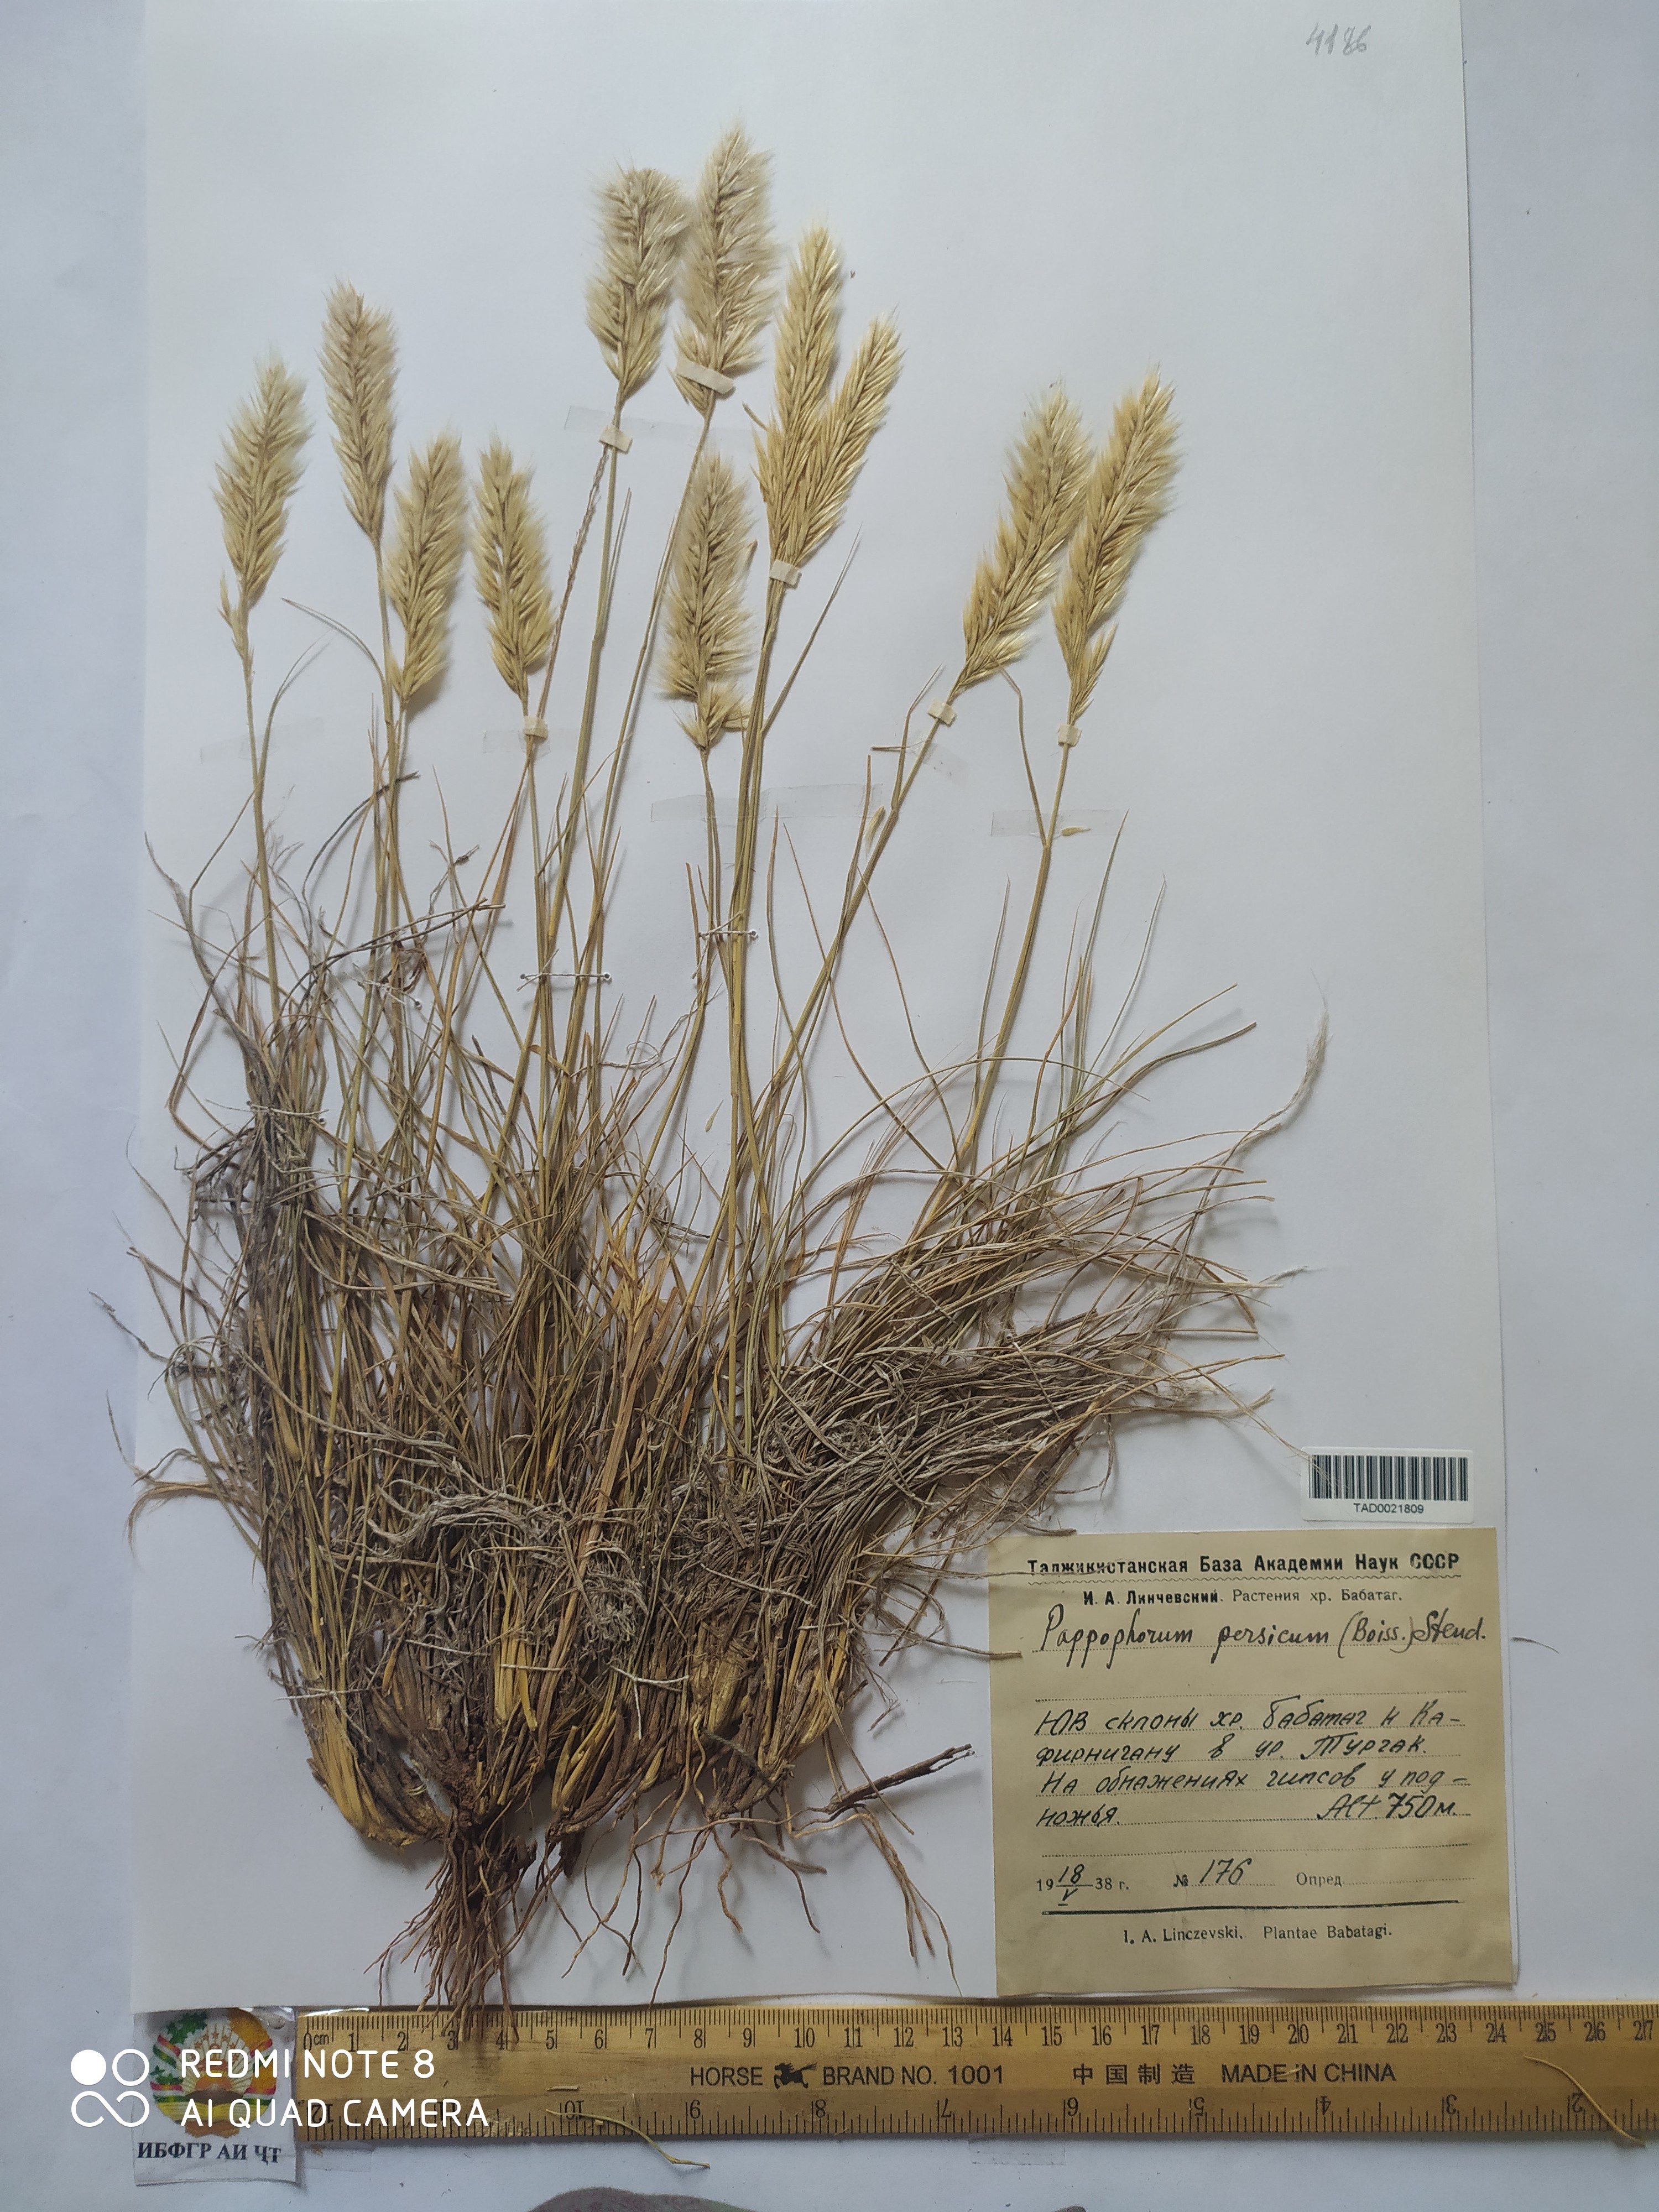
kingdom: Plantae
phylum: Tracheophyta
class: Liliopsida
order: Poales
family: Poaceae
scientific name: Poaceae
